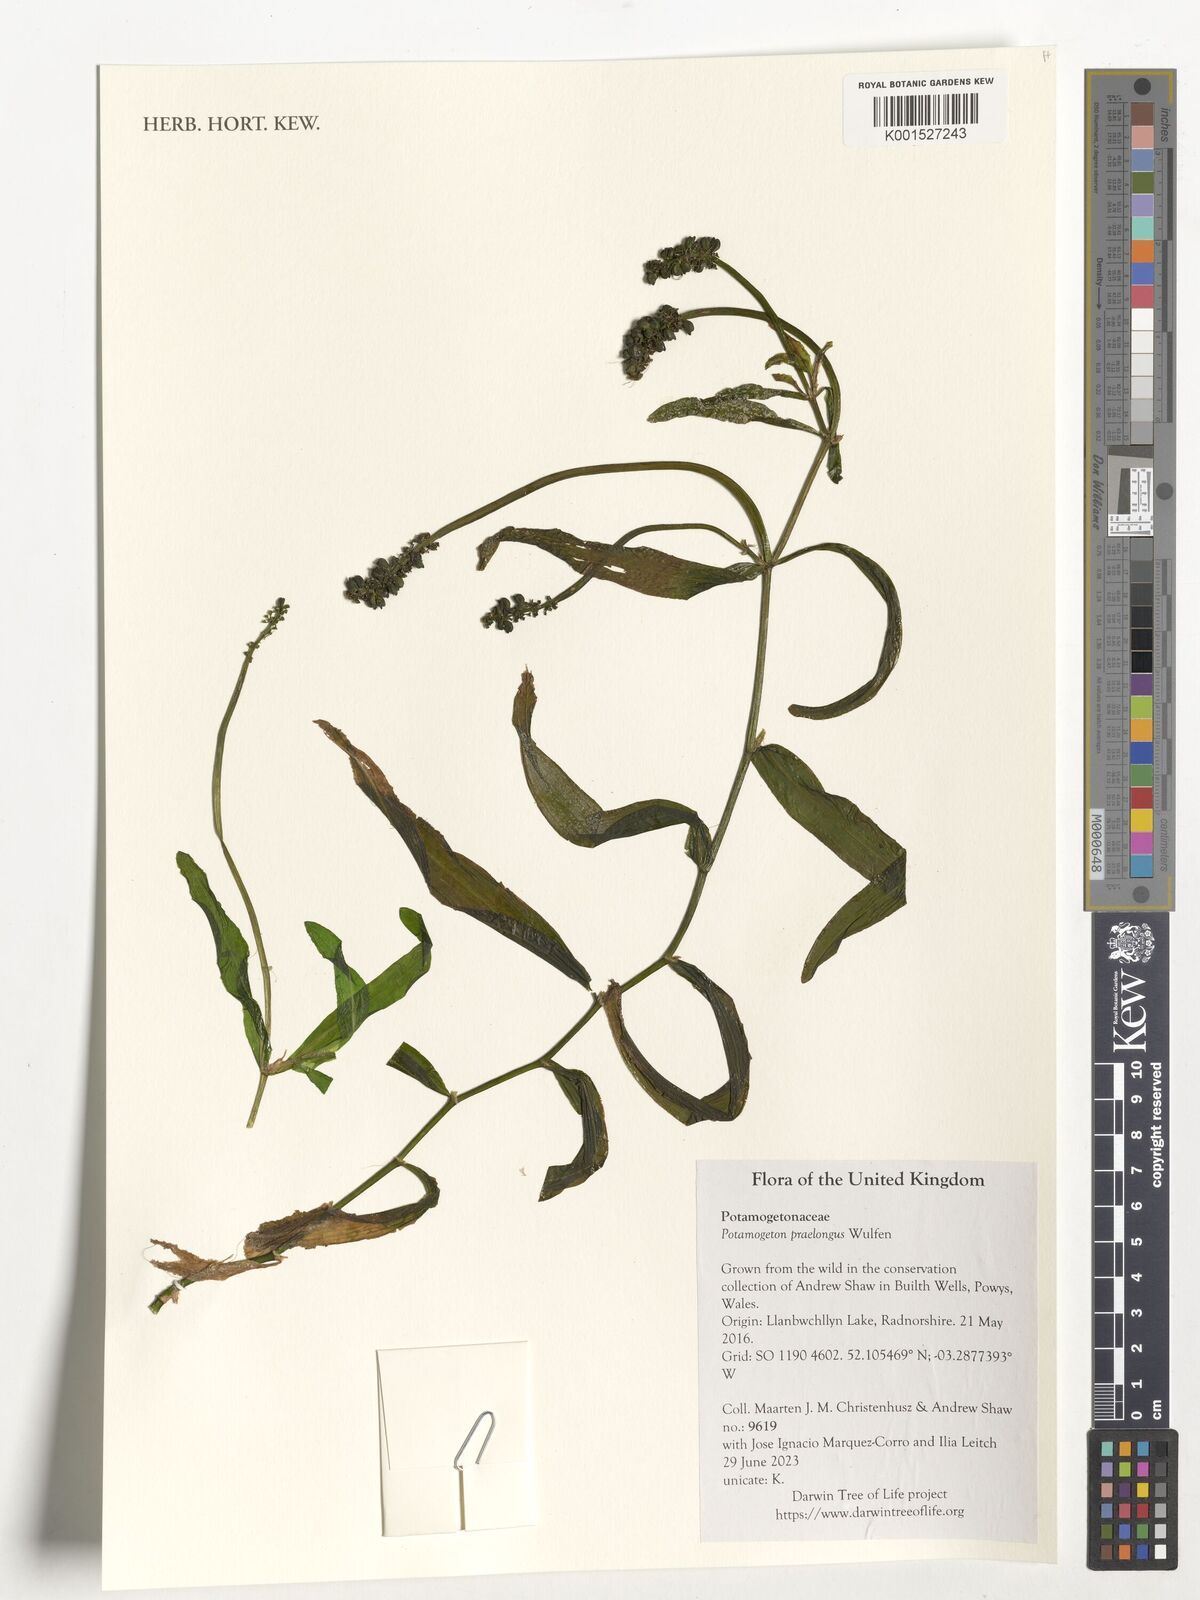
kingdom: Plantae
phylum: Tracheophyta
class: Liliopsida
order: Alismatales
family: Potamogetonaceae
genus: Potamogeton
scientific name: Potamogeton praelongus
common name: Long-stalked pondweed
